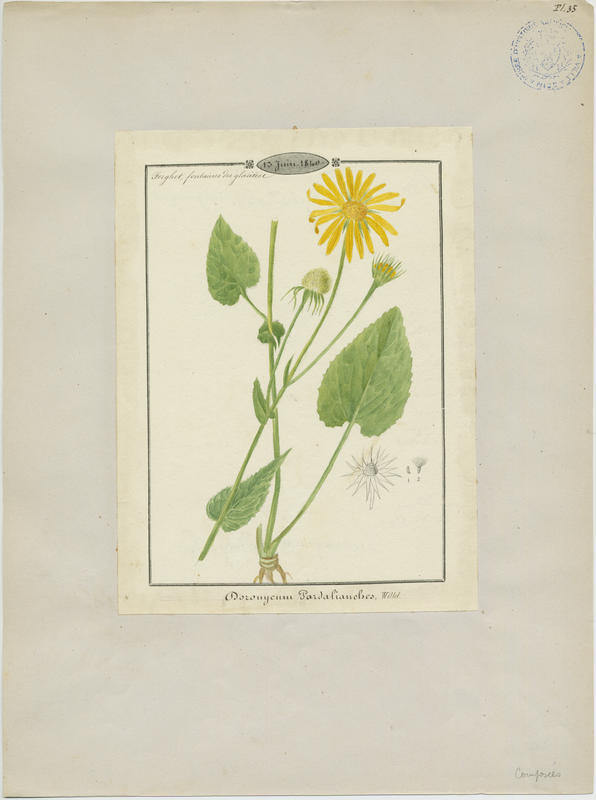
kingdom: Plantae
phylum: Tracheophyta
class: Magnoliopsida
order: Asterales
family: Asteraceae
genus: Doronicum
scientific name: Doronicum pardalianches
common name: Leopard's-bane
